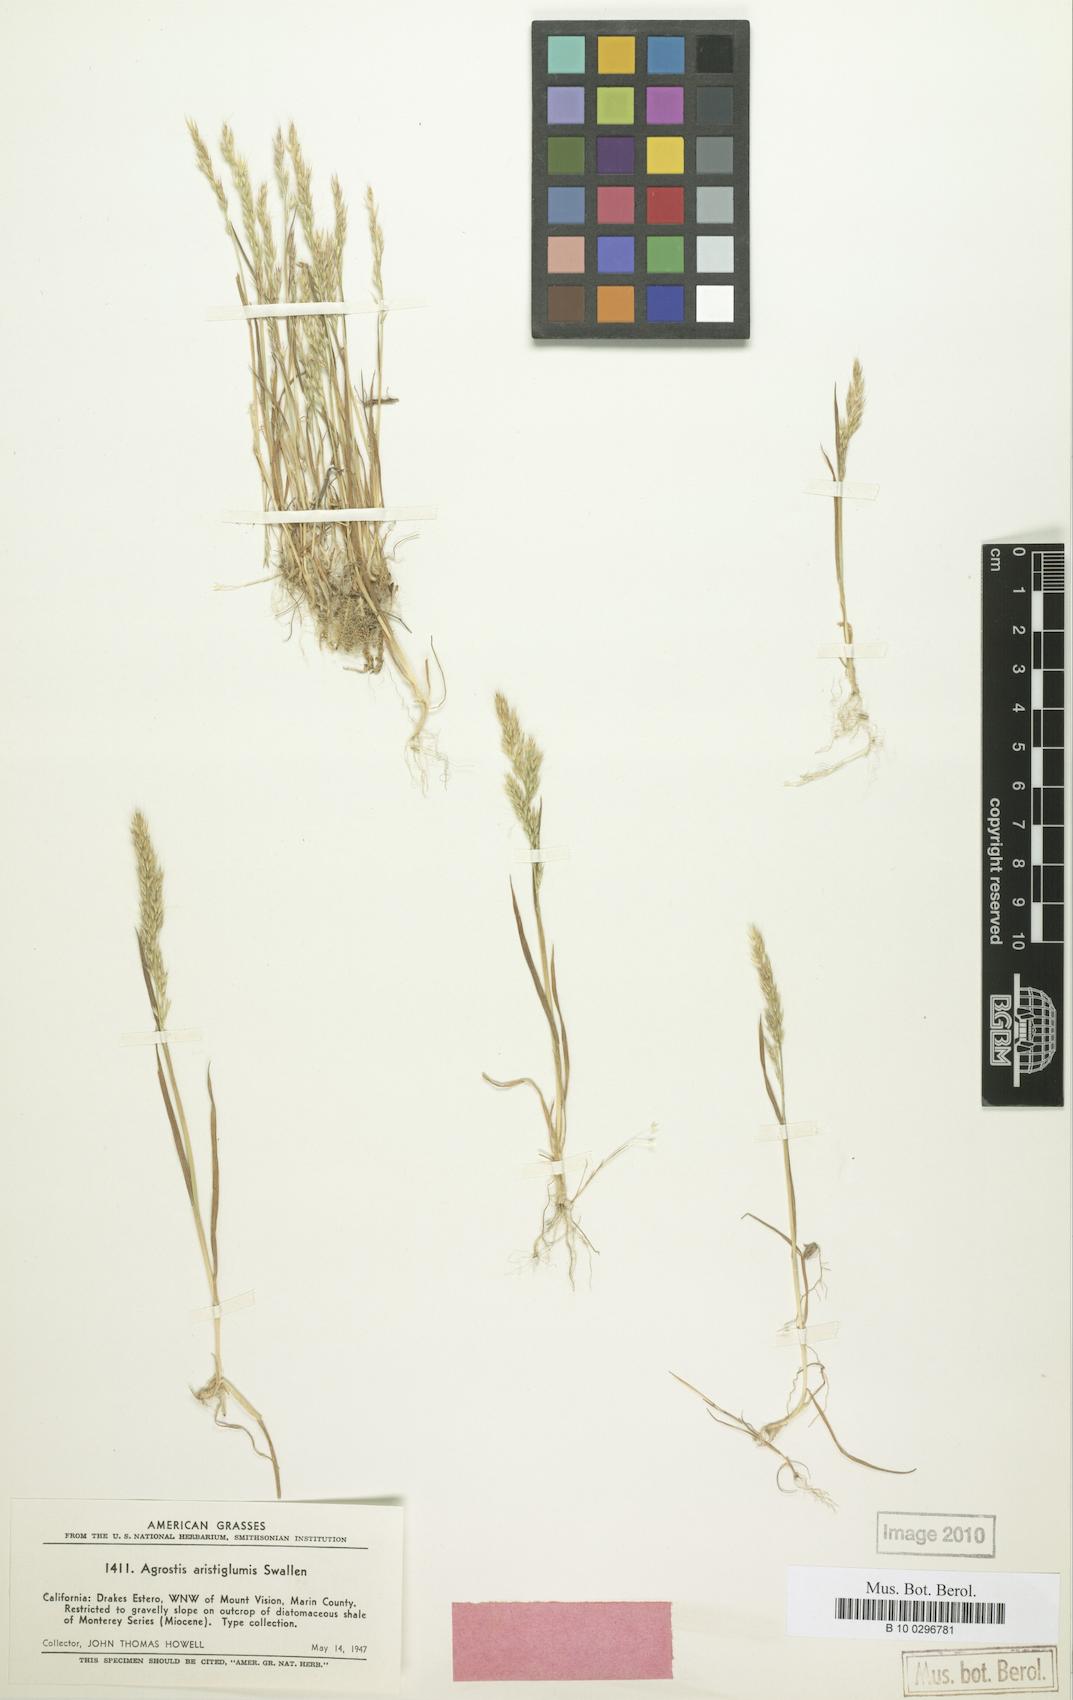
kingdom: Plantae
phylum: Tracheophyta
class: Liliopsida
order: Poales
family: Poaceae
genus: Agrostis
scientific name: Agrostis microphylla
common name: Small-leaf bent
